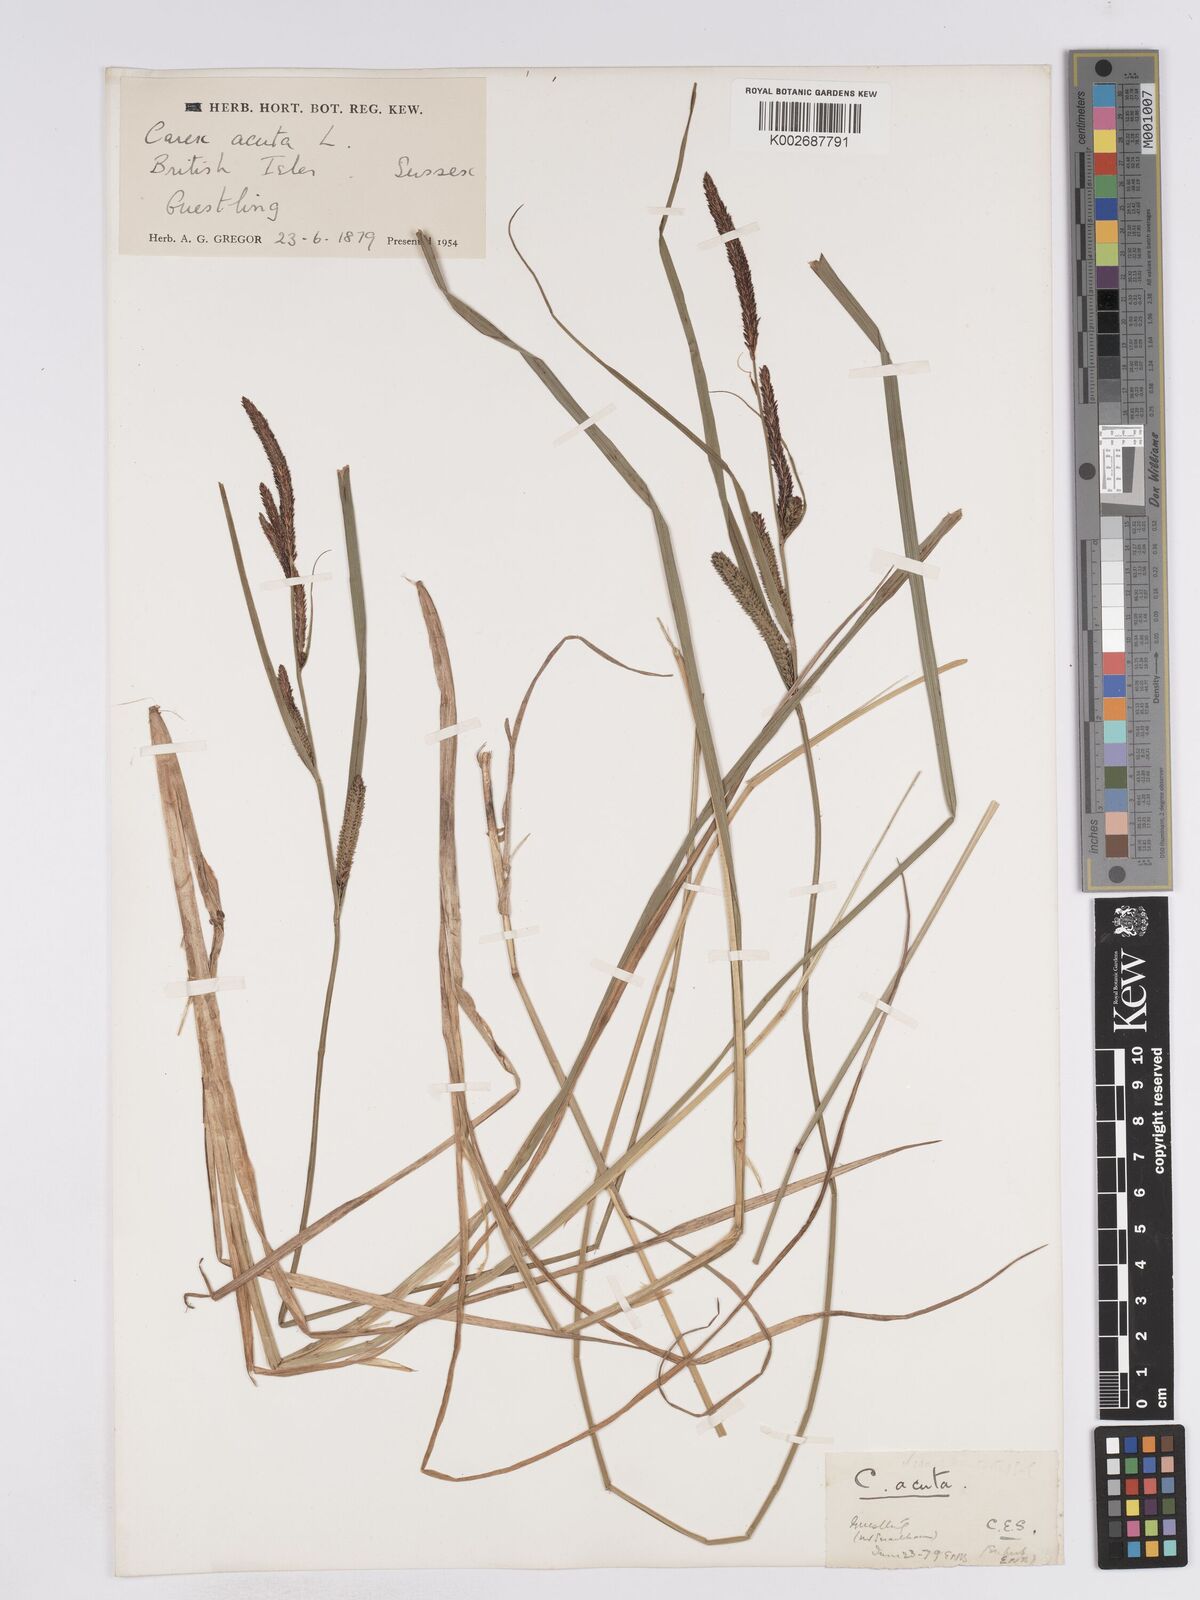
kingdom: Plantae
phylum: Tracheophyta
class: Liliopsida
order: Poales
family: Cyperaceae
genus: Carex
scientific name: Carex acuta
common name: Slender tufted-sedge
